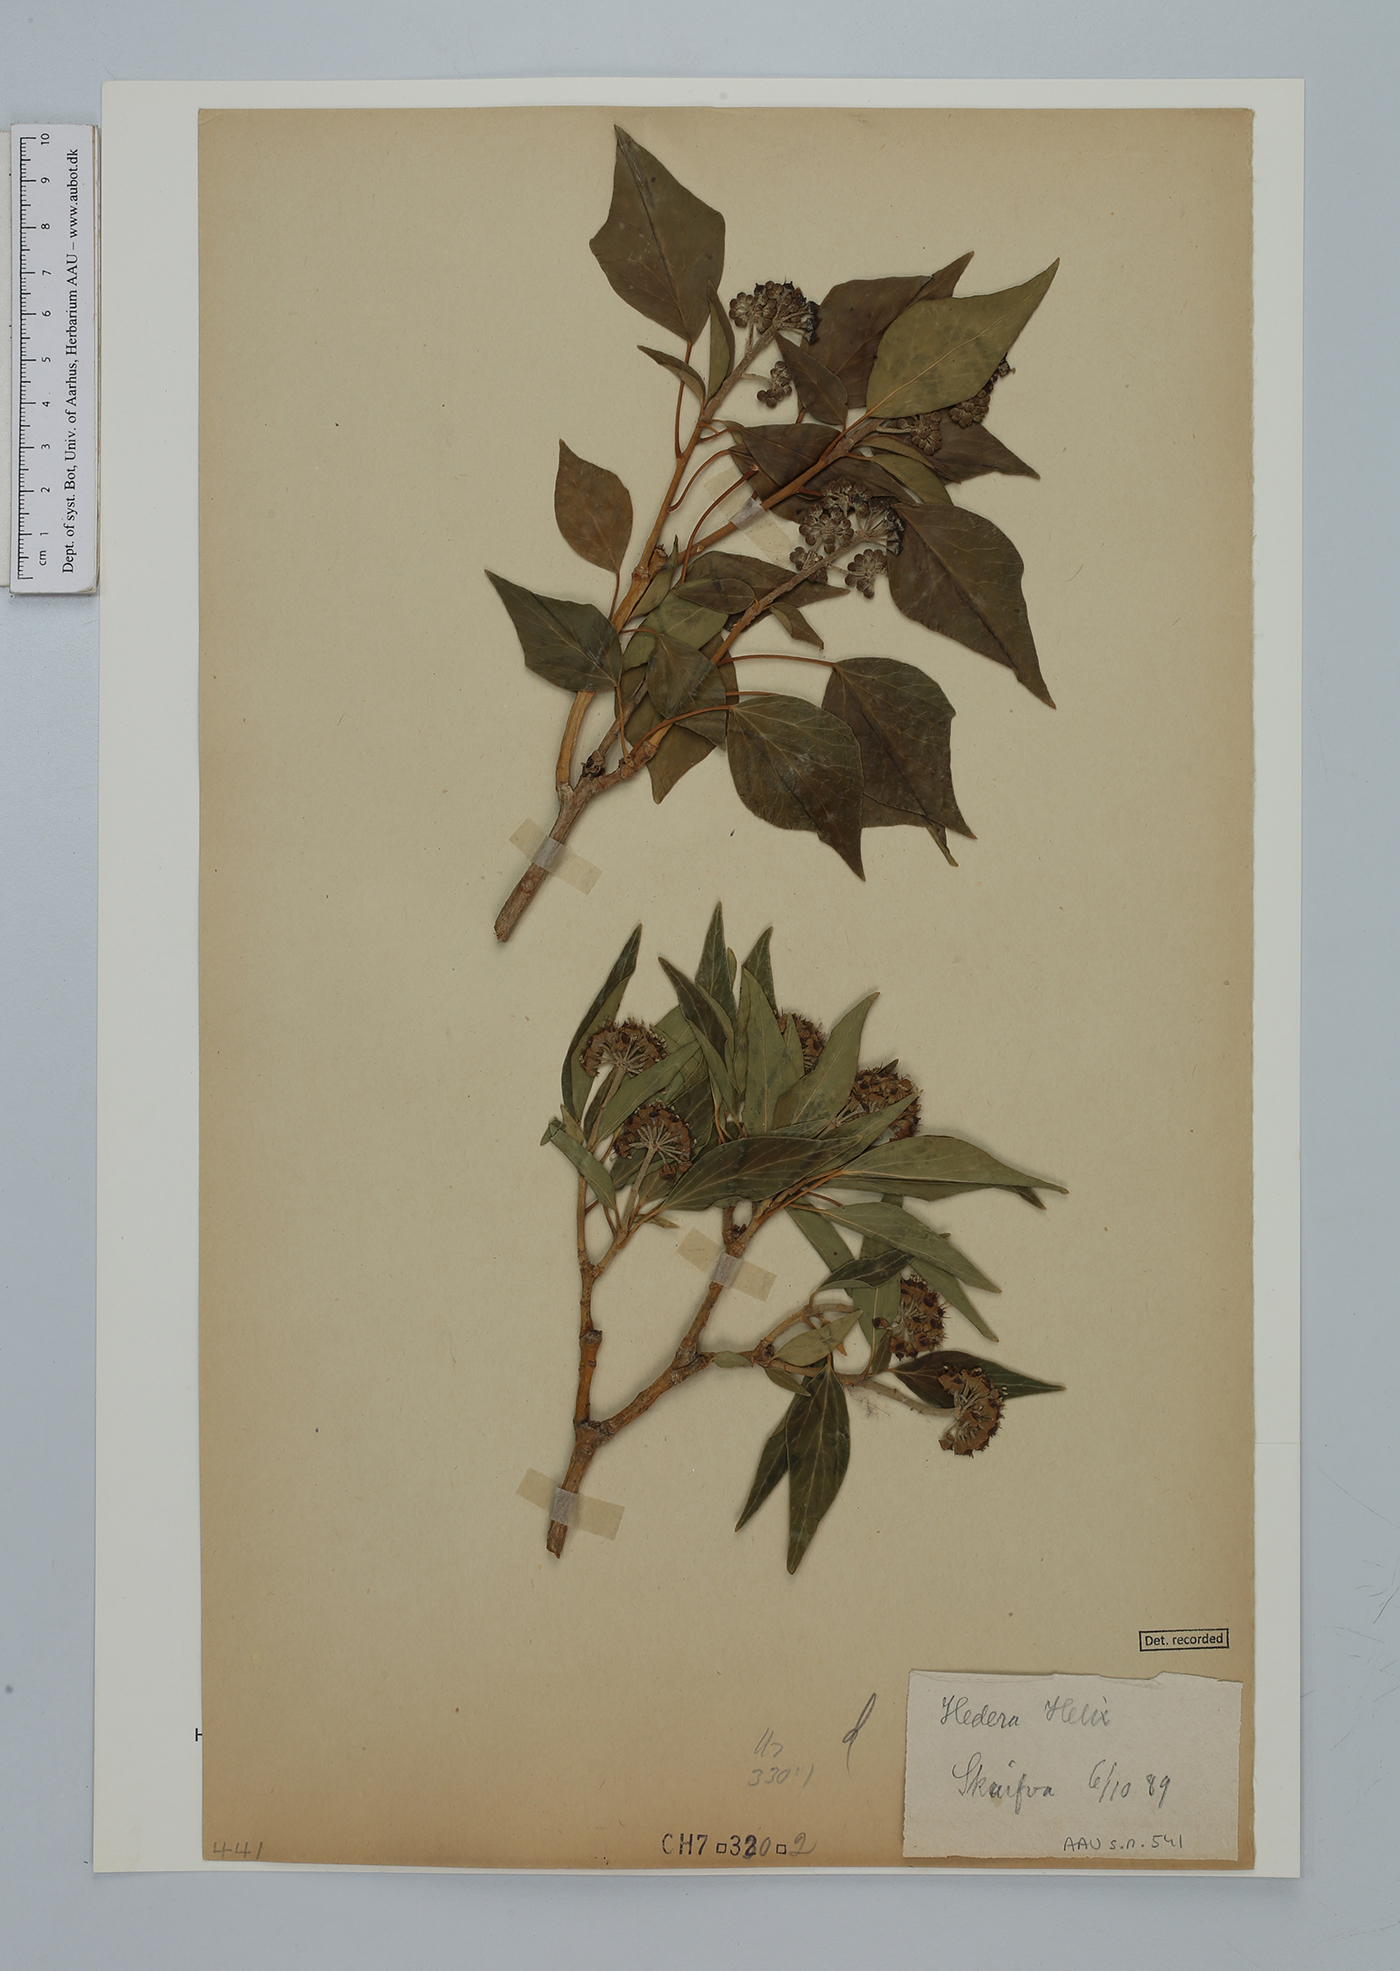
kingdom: Plantae
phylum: Tracheophyta
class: Magnoliopsida
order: Apiales
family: Araliaceae
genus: Hedera
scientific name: Hedera helix
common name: Ivy
